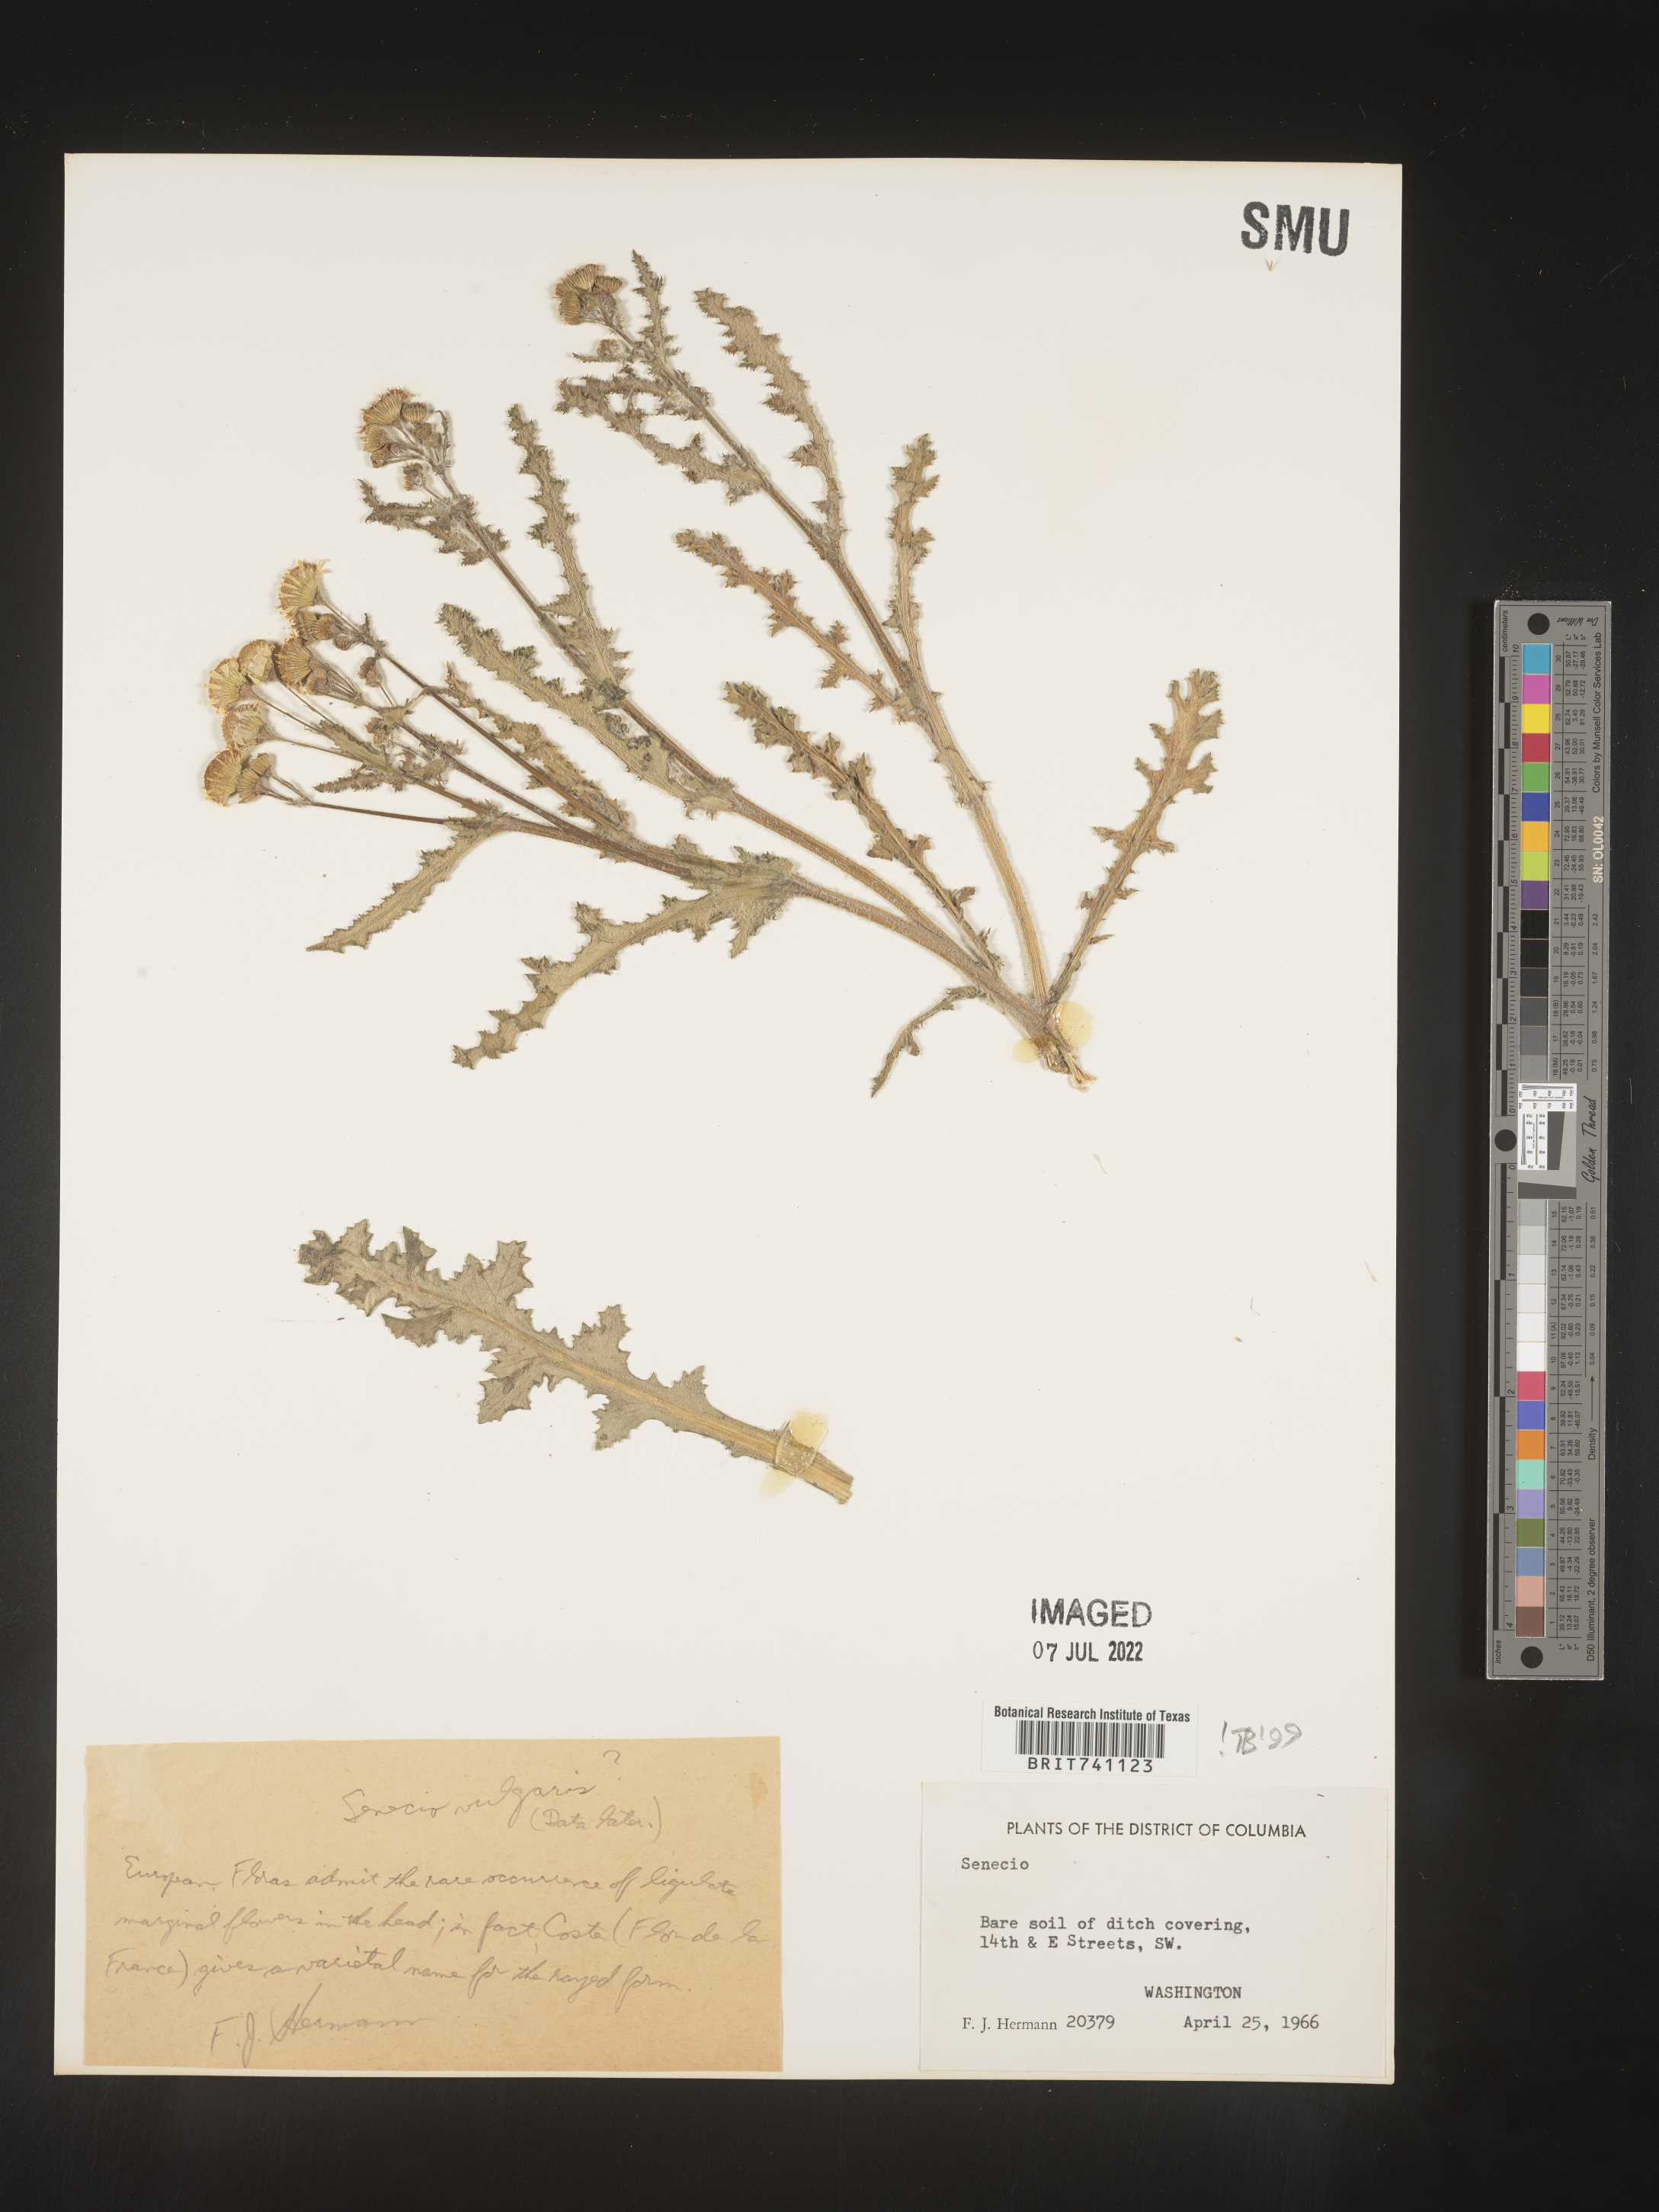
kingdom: Plantae
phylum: Tracheophyta
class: Magnoliopsida
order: Asterales
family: Asteraceae
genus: Senecio
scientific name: Senecio vulgaris
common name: Old-man-in-the-spring
